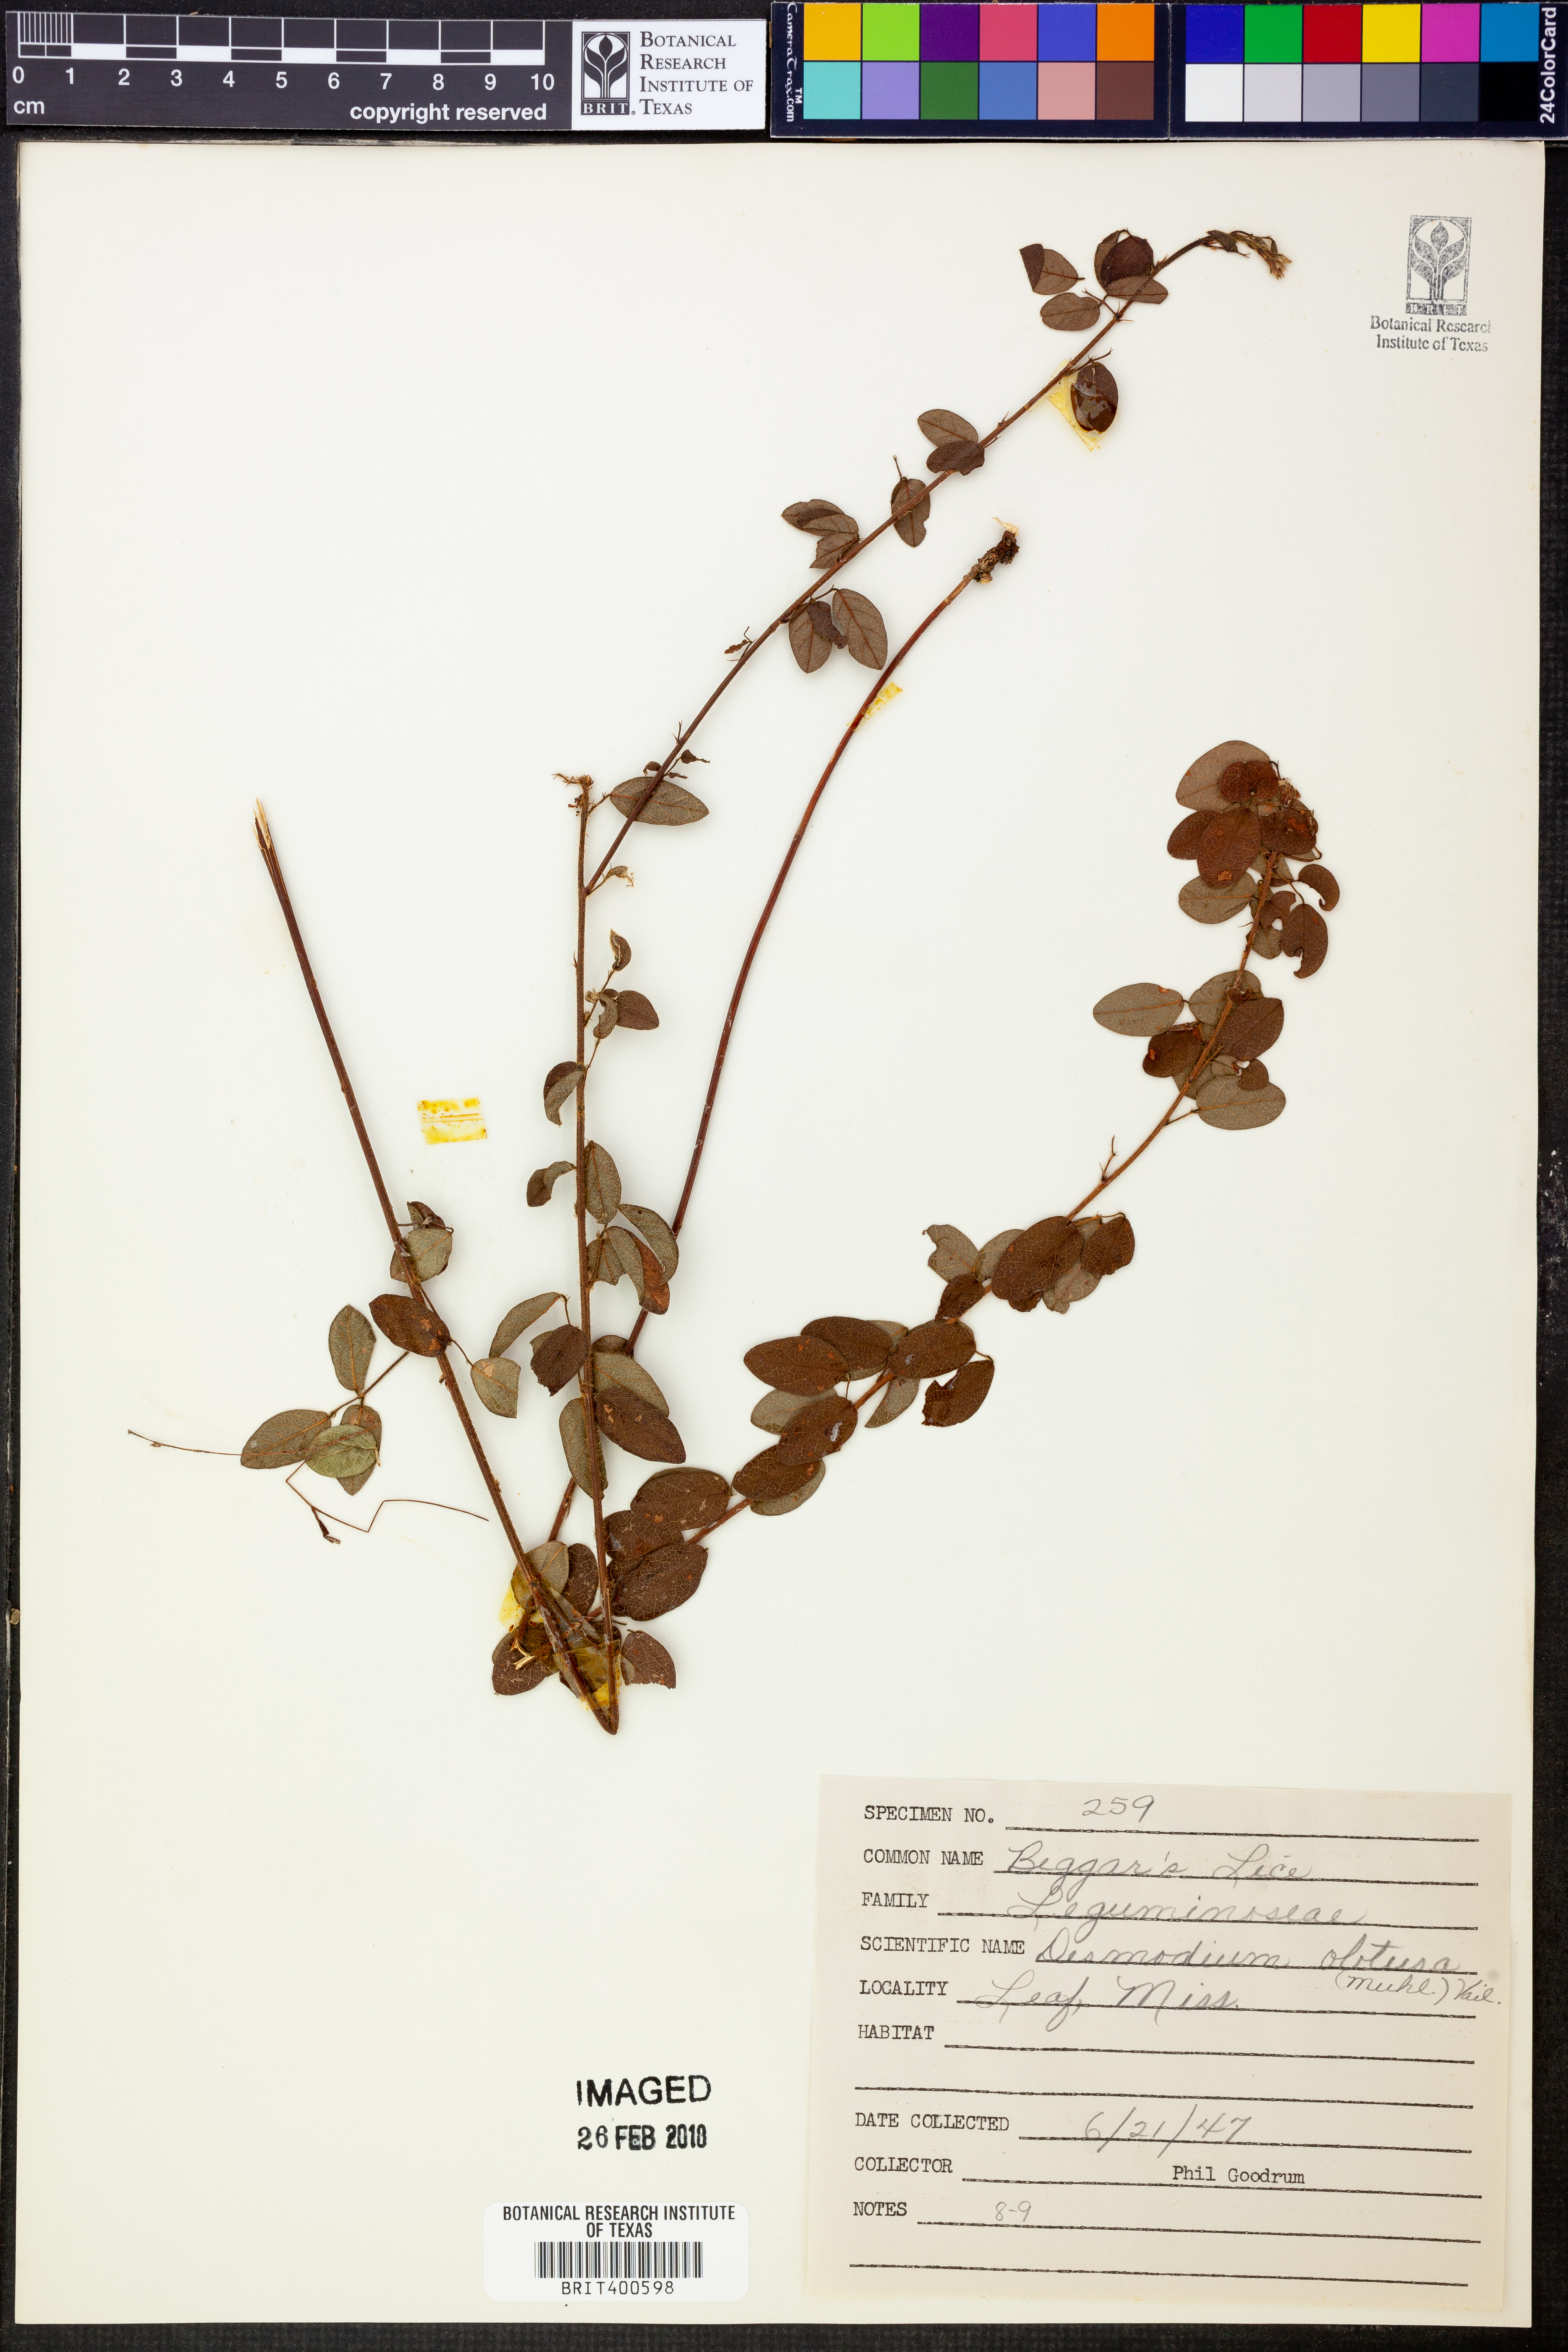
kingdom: Plantae
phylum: Tracheophyta
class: Magnoliopsida
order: Fabales
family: Fabaceae
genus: Desmodium
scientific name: Desmodium obtusum
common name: Stiff tick trefoil
